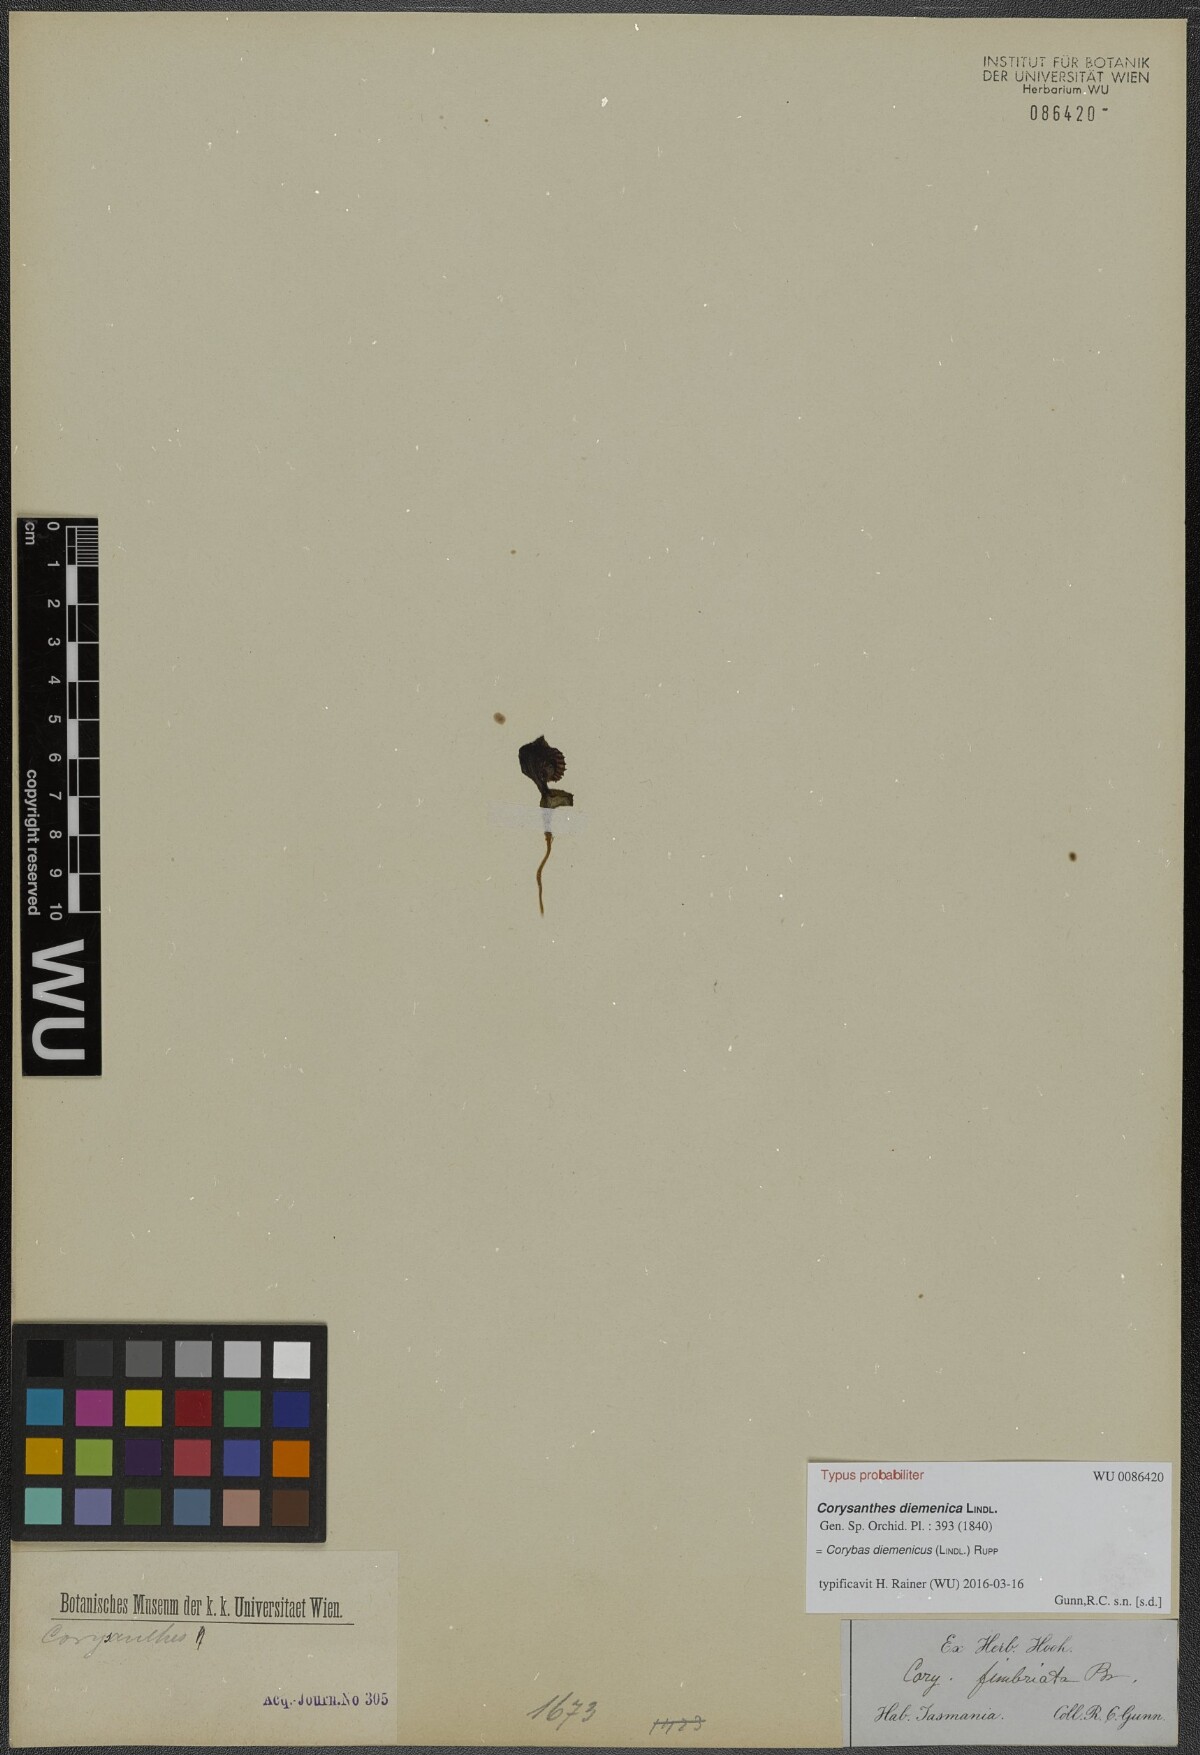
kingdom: Plantae
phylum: Tracheophyta
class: Liliopsida
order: Asparagales
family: Orchidaceae
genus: Corybas
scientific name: Corybas diemenicus
